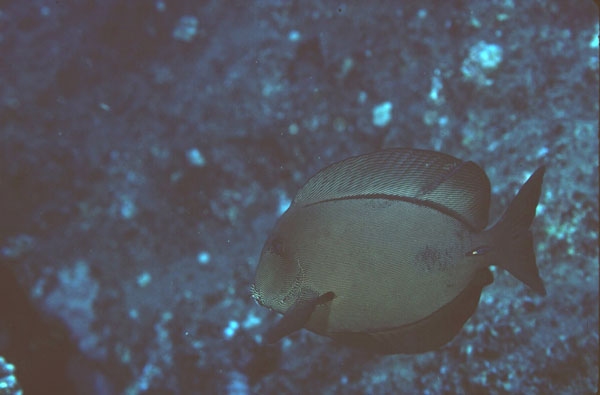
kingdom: Animalia
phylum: Chordata
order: Perciformes
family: Acanthuridae
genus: Ctenochaetus
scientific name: Ctenochaetus hawaiiensis
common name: Hawaiian surgeonfish
